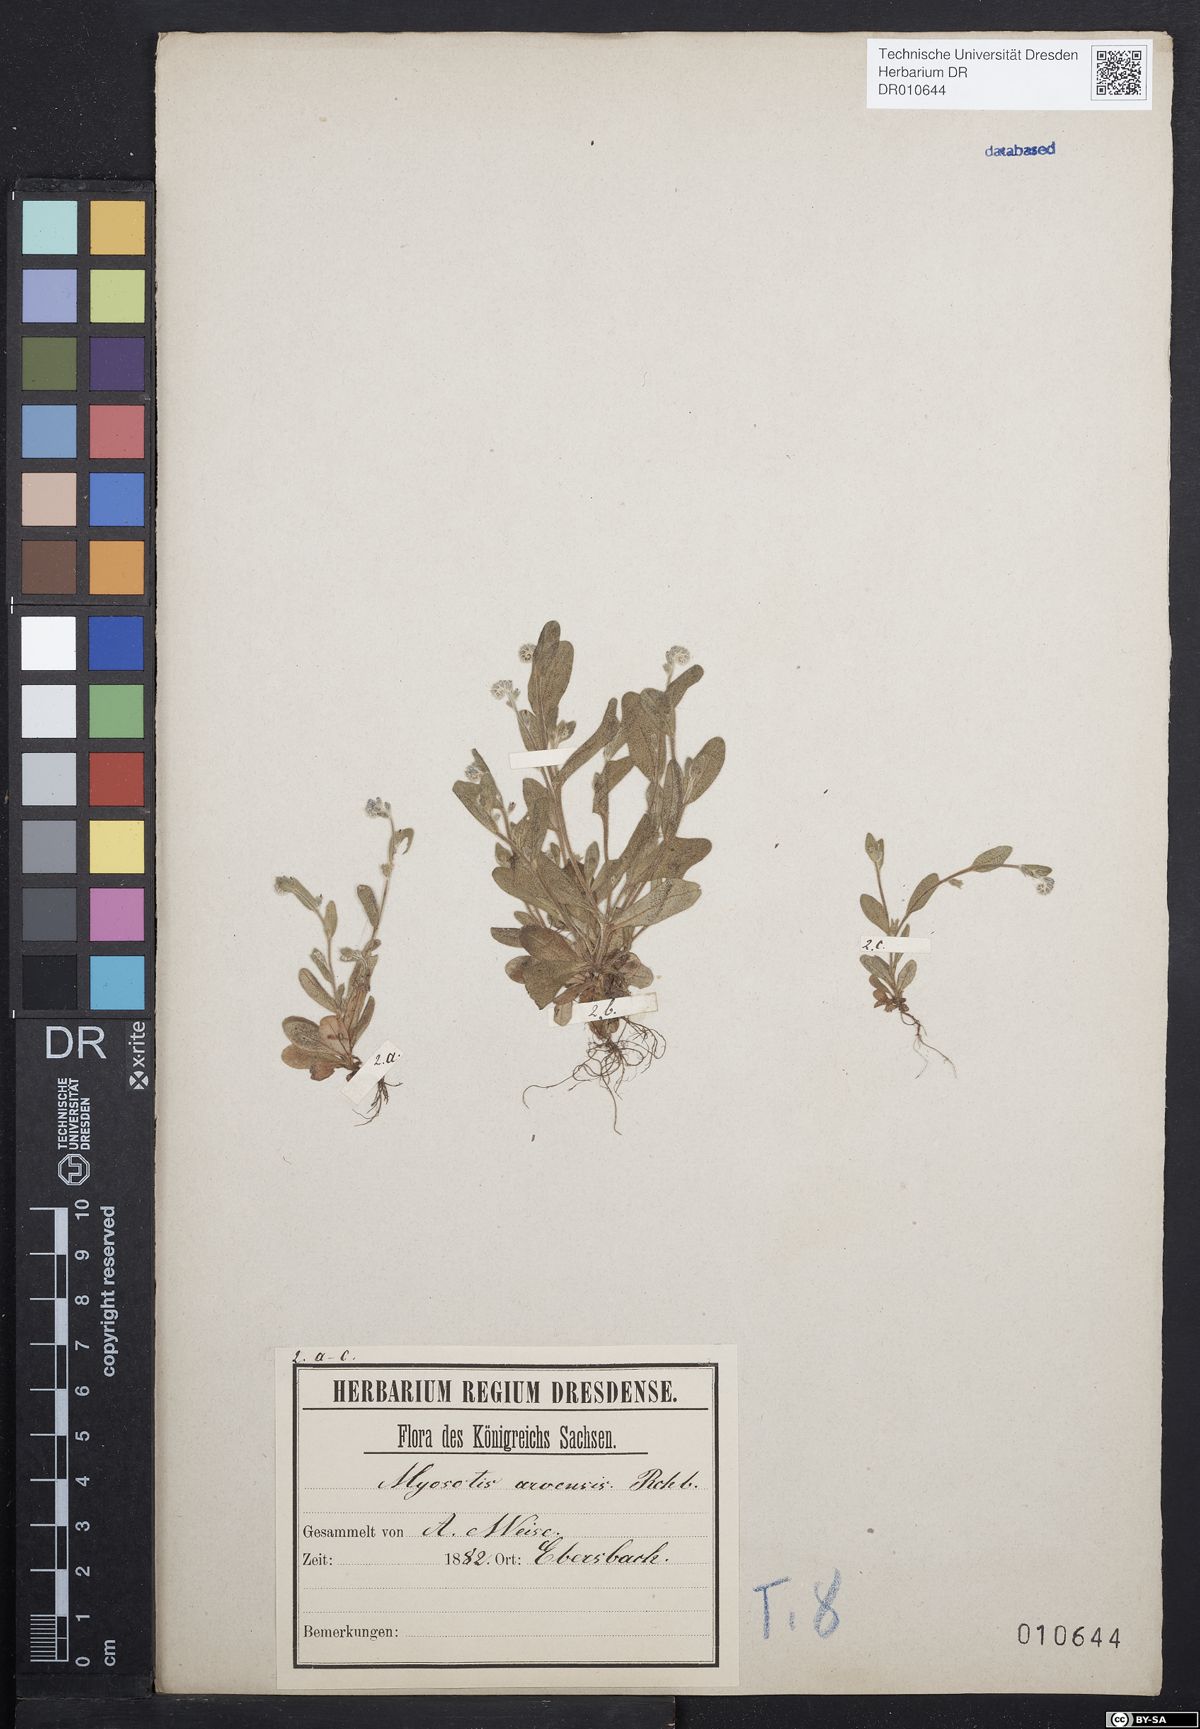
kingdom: Plantae
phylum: Tracheophyta
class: Magnoliopsida
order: Boraginales
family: Boraginaceae
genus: Myosotis
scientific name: Myosotis stricta
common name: Strict forget-me-not
